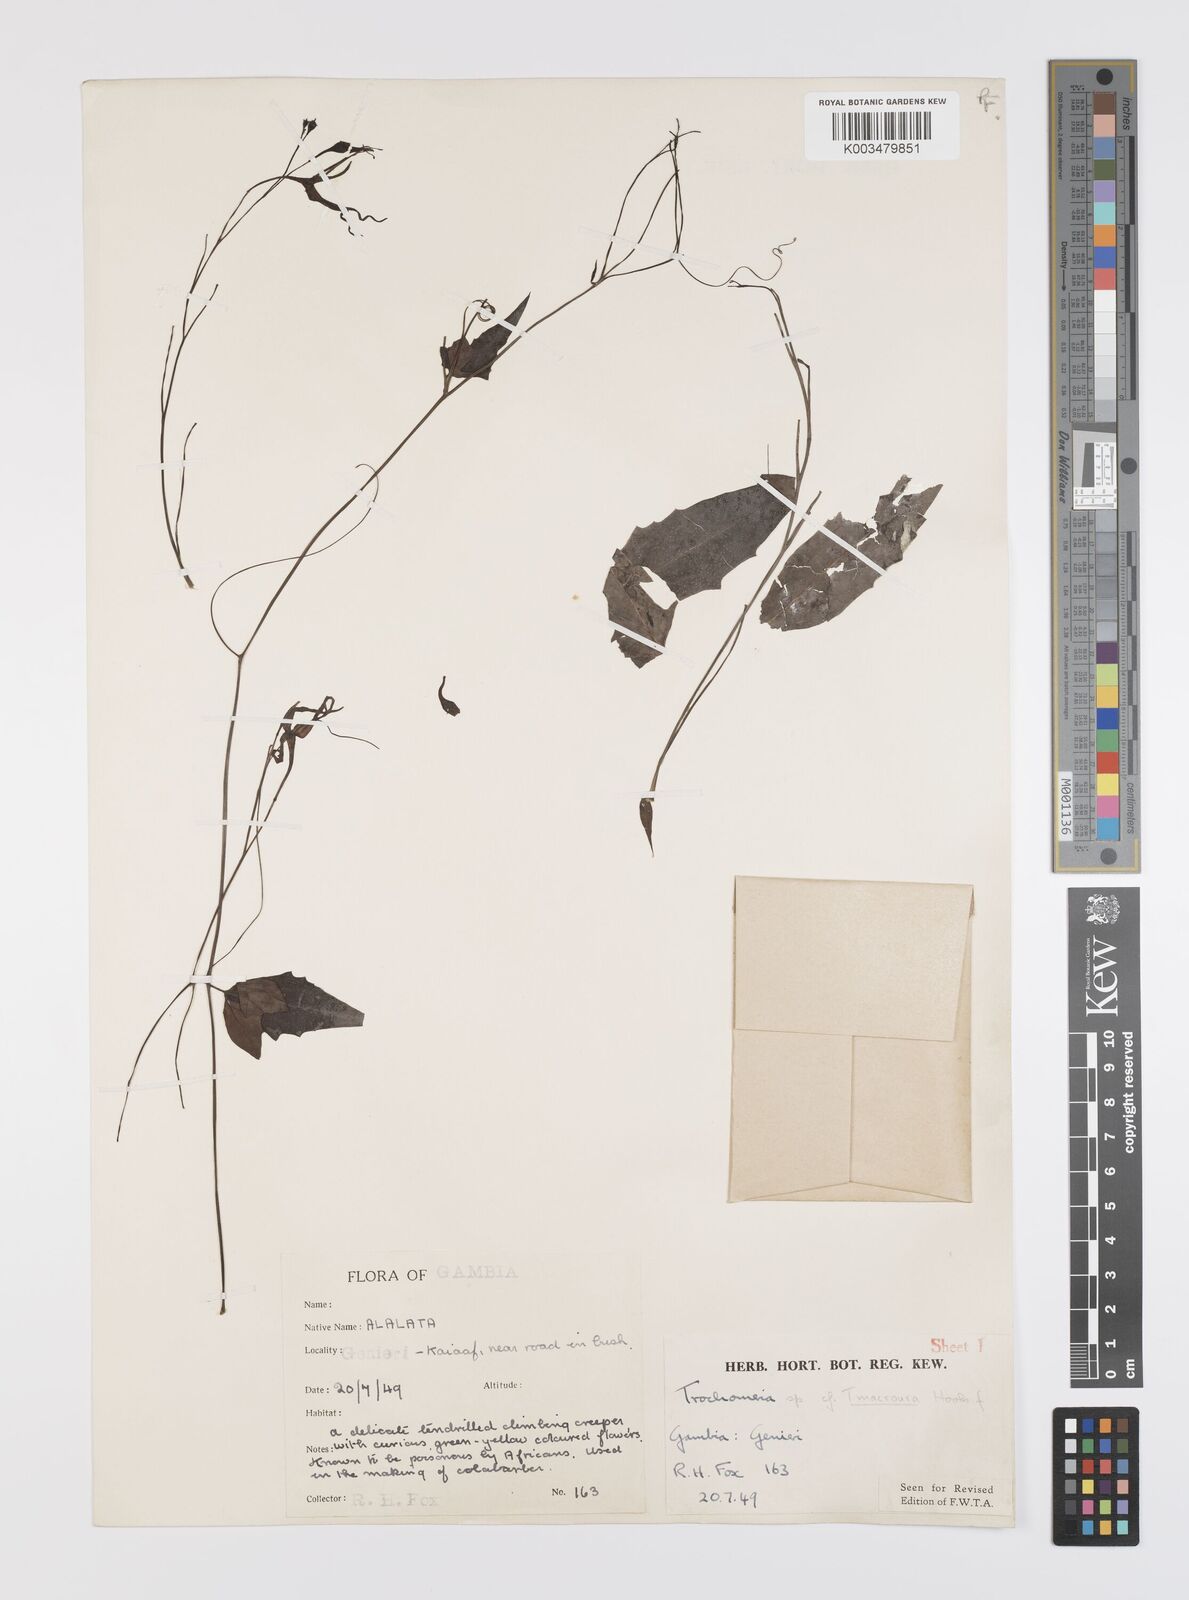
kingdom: Plantae
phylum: Tracheophyta
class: Magnoliopsida
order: Cucurbitales
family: Cucurbitaceae
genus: Trochomeria
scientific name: Trochomeria macrocarpa
